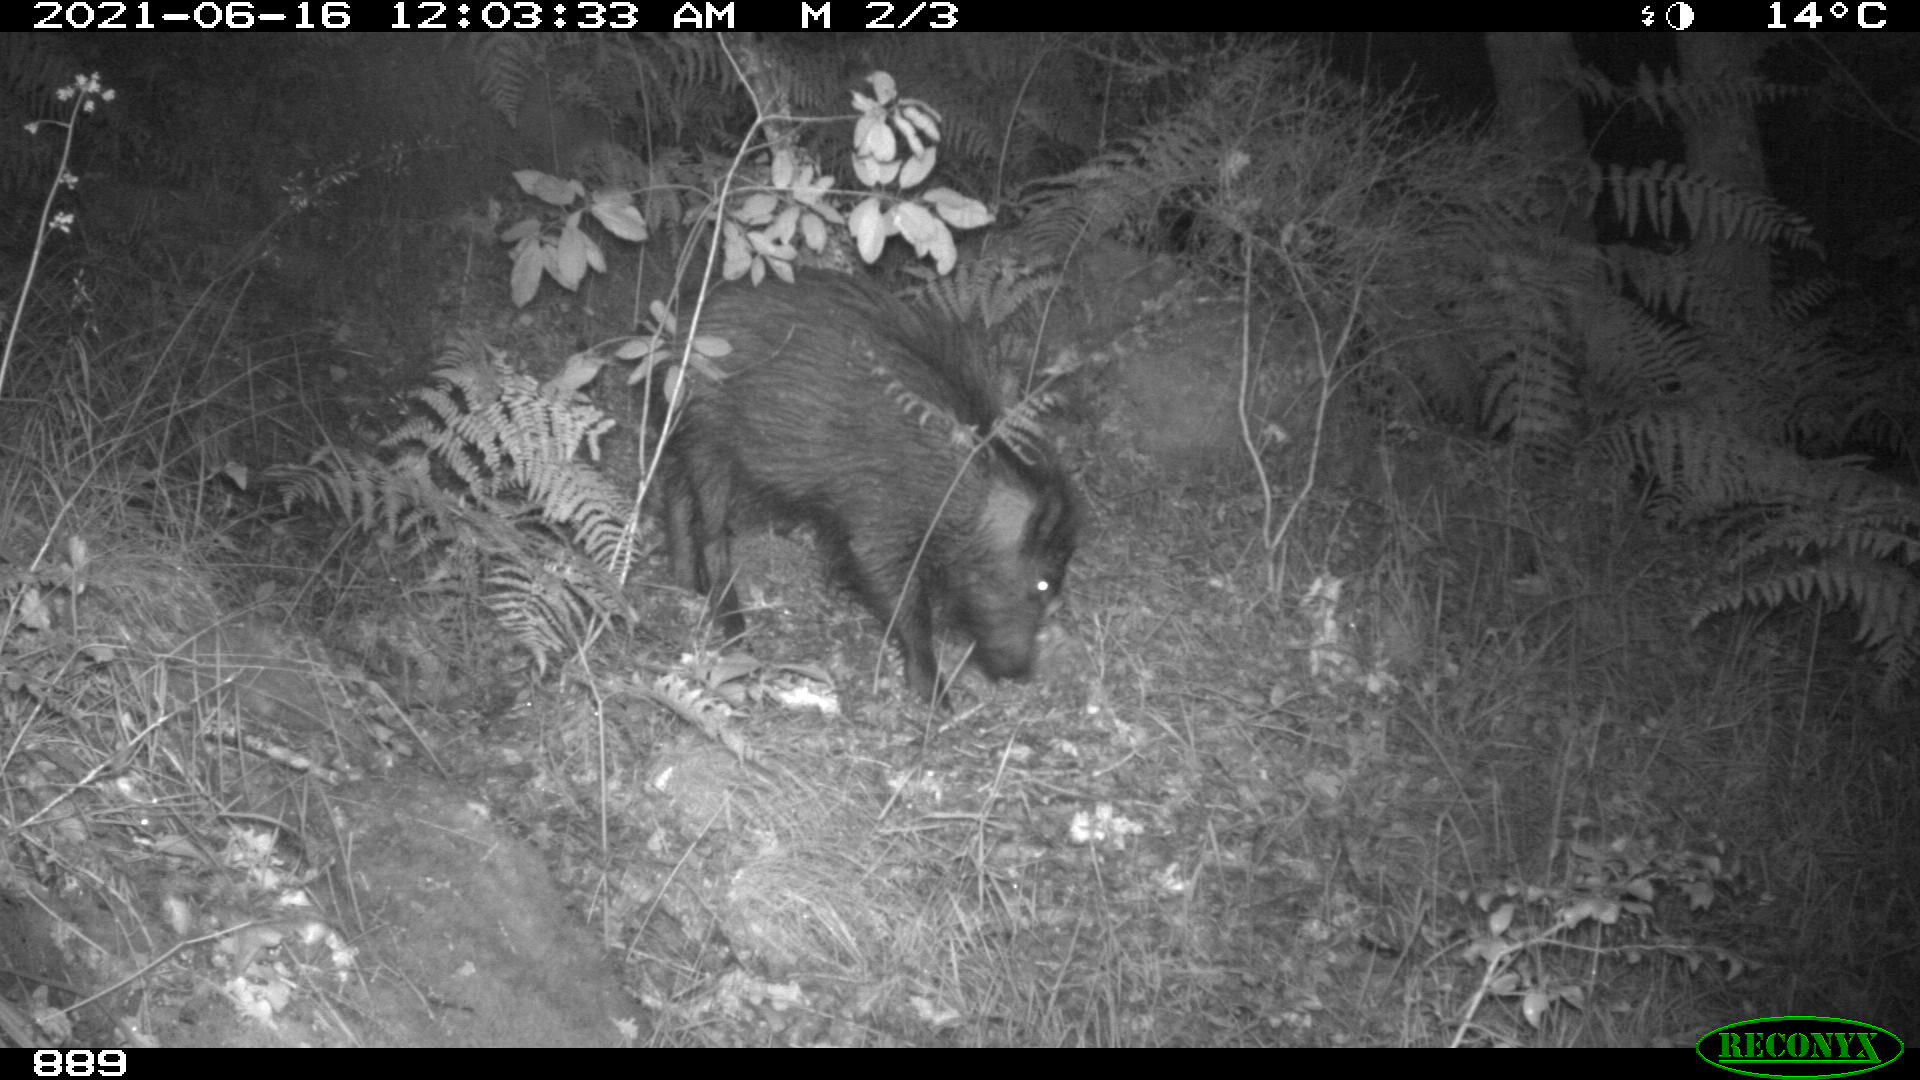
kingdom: Animalia
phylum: Chordata
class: Mammalia
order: Artiodactyla
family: Suidae
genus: Sus
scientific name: Sus scrofa
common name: Wild boar
